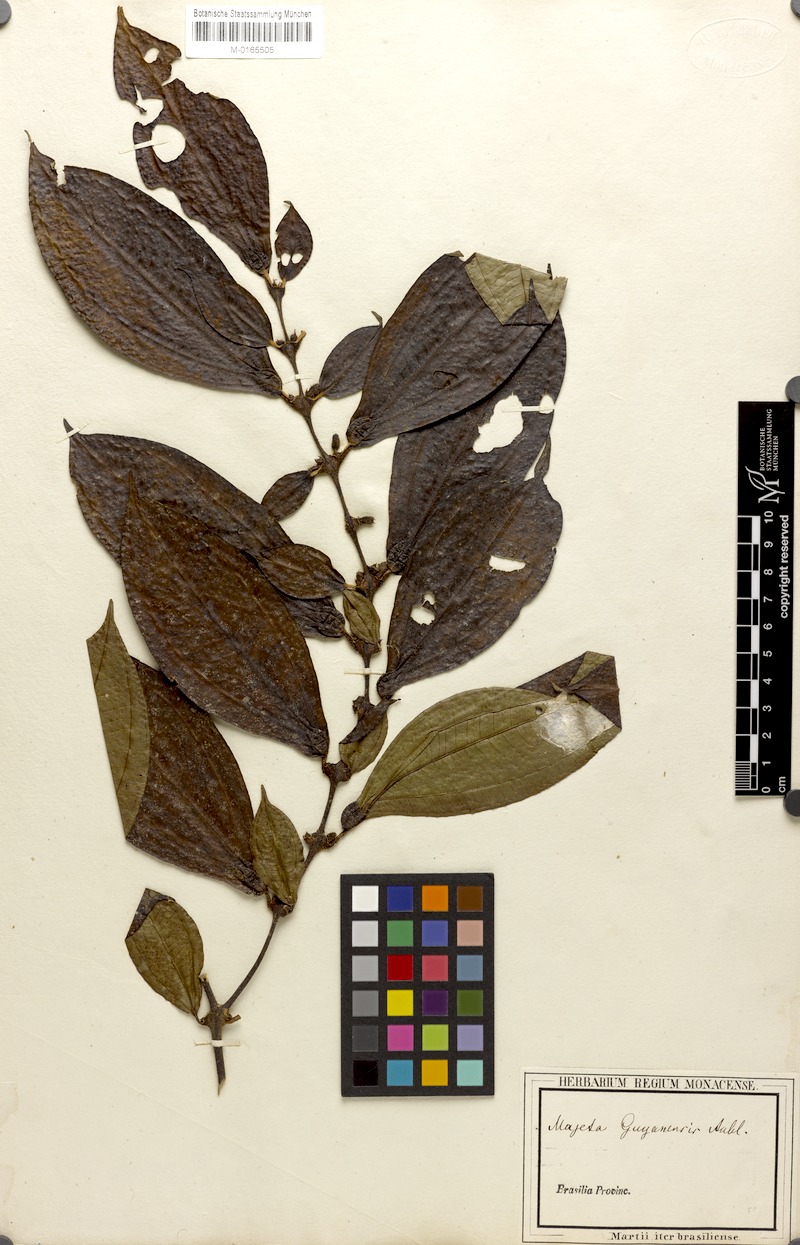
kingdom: Plantae
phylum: Tracheophyta
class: Magnoliopsida
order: Myrtales
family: Melastomataceae
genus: Miconia
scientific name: Miconia mayeta
